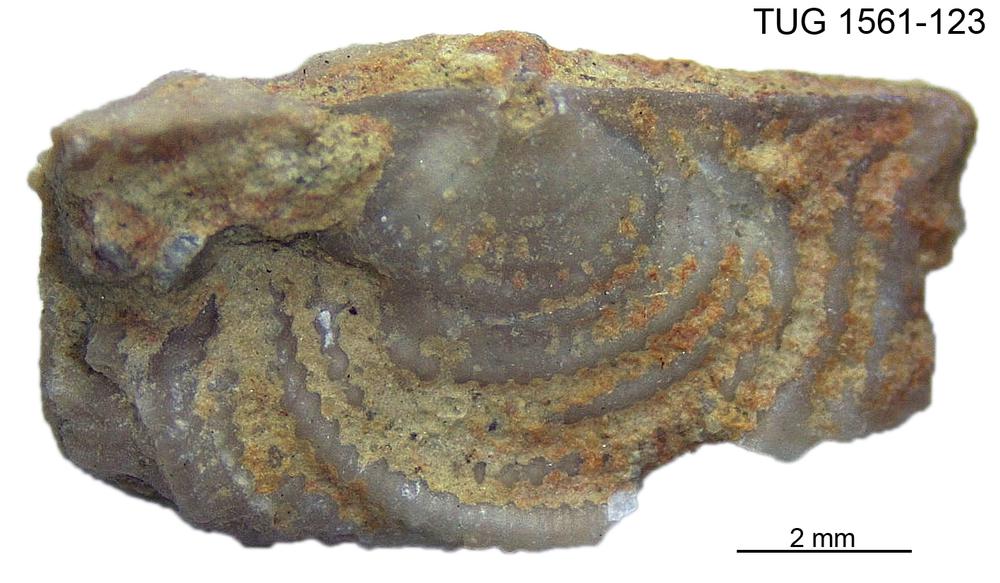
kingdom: Animalia
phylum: Brachiopoda
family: Rafinesquinidae
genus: Lepidoleptaena
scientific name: Lepidoleptaena poulseni
